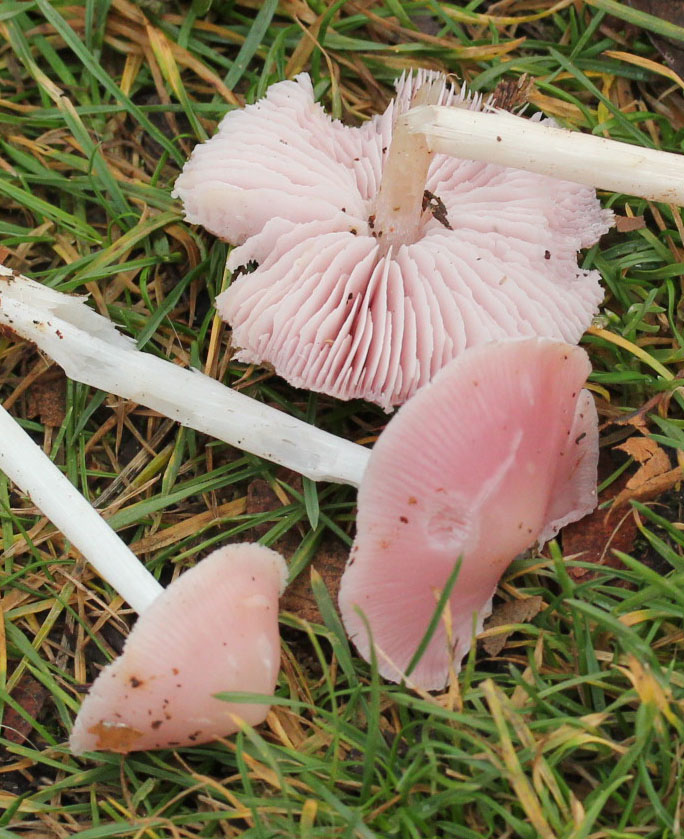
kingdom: Fungi
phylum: Basidiomycota
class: Agaricomycetes
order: Agaricales
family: Mycenaceae
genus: Mycena
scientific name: Mycena rosea
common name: rosa huesvamp
